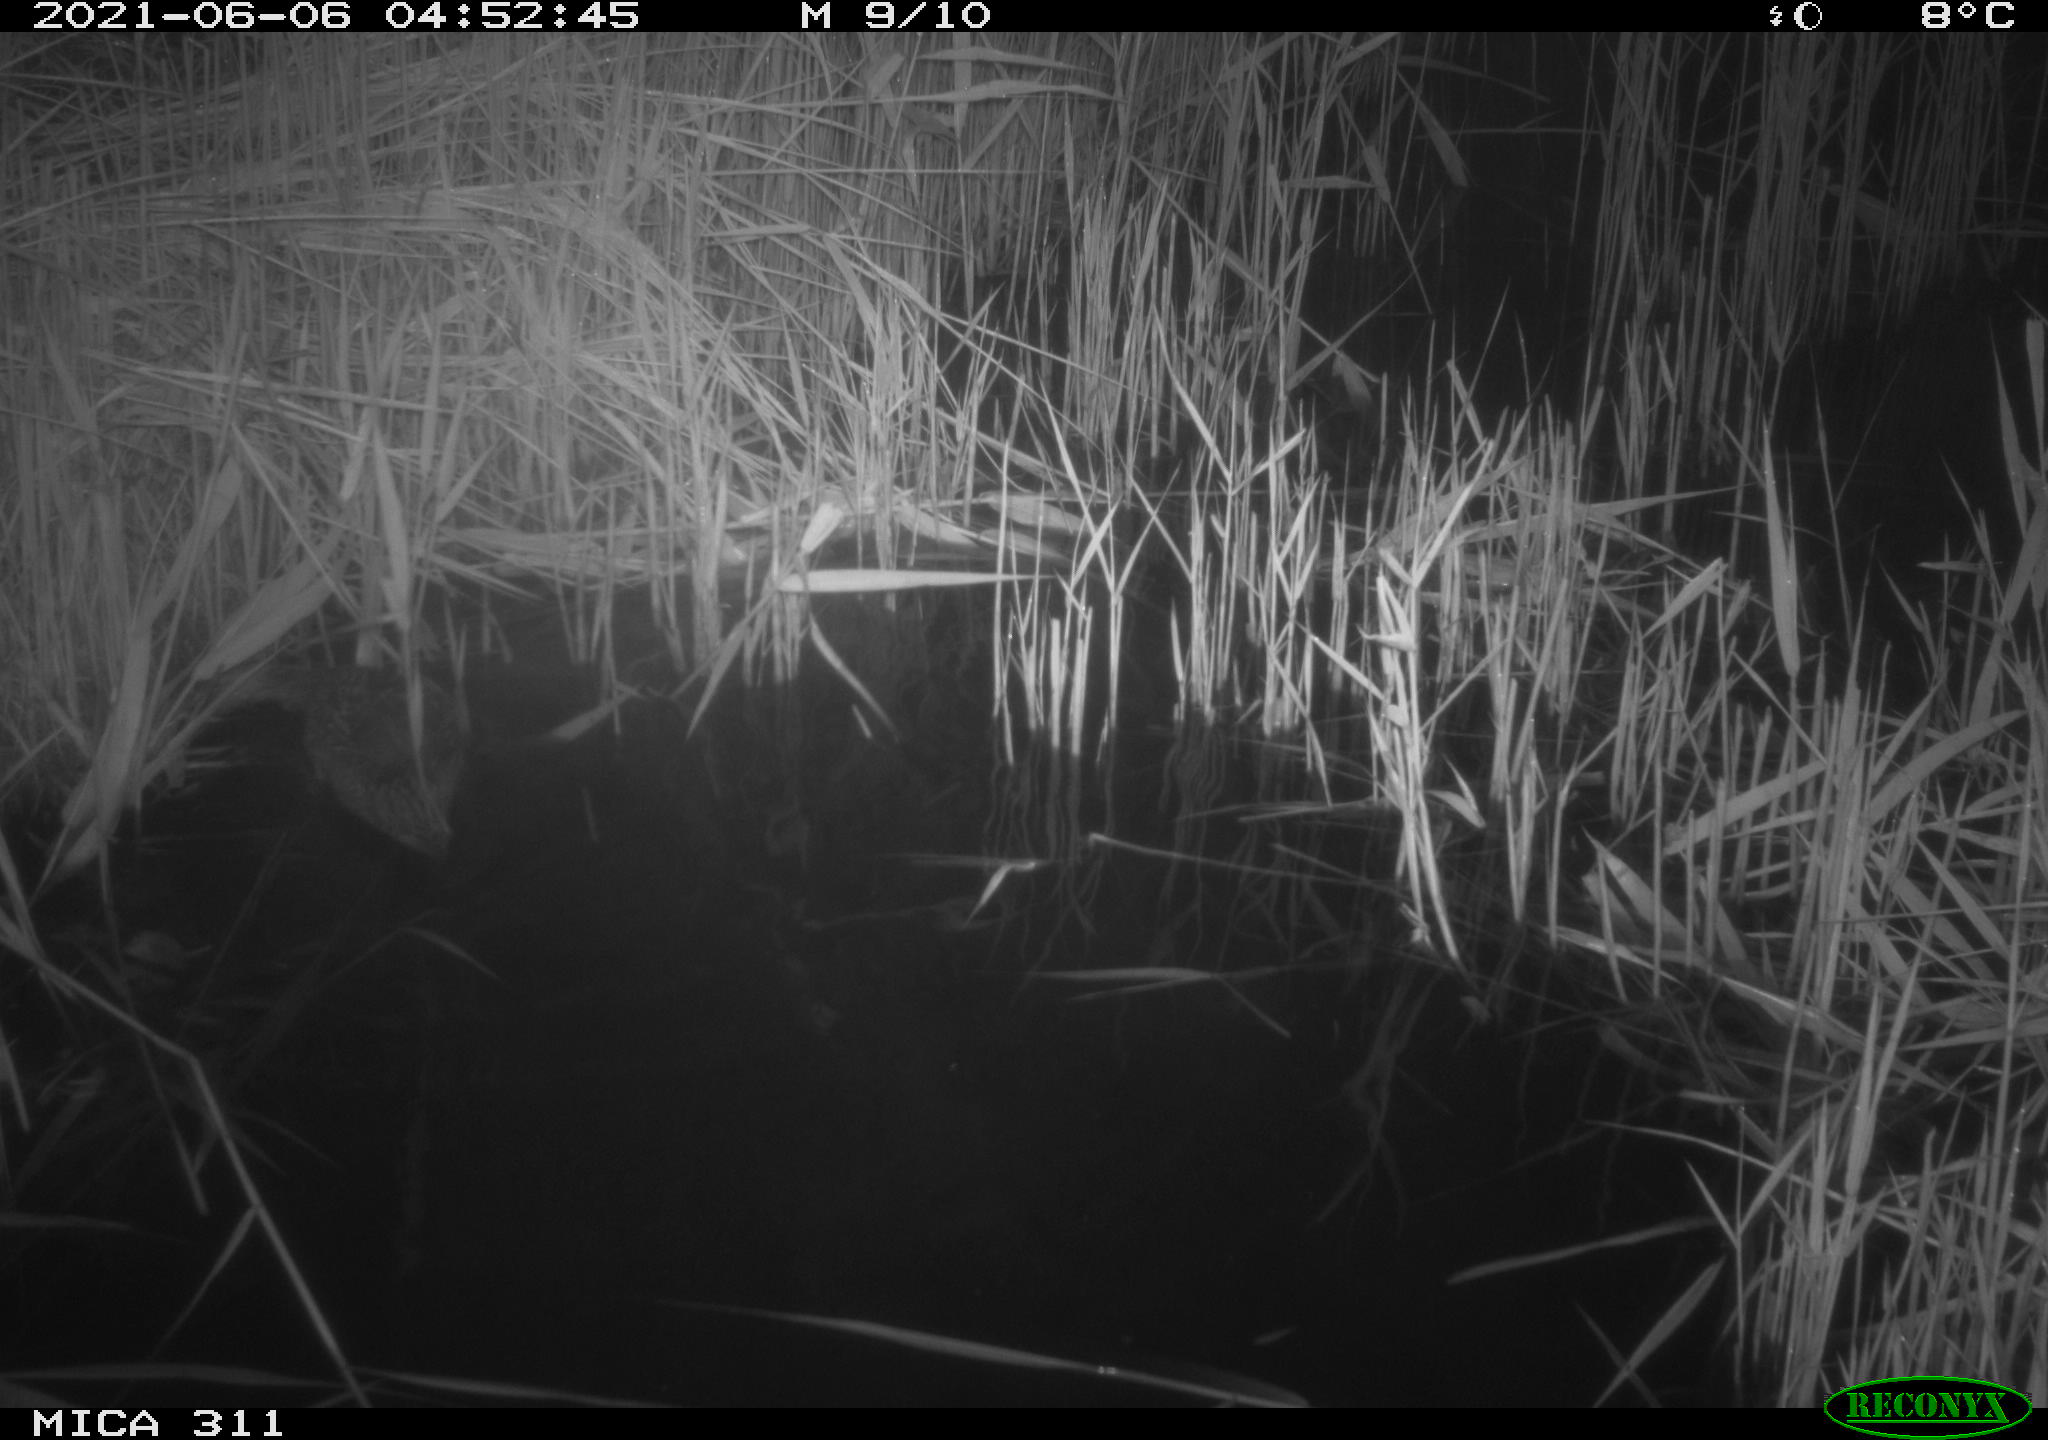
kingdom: Animalia
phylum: Chordata
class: Aves
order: Anseriformes
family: Anatidae
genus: Anas
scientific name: Anas
